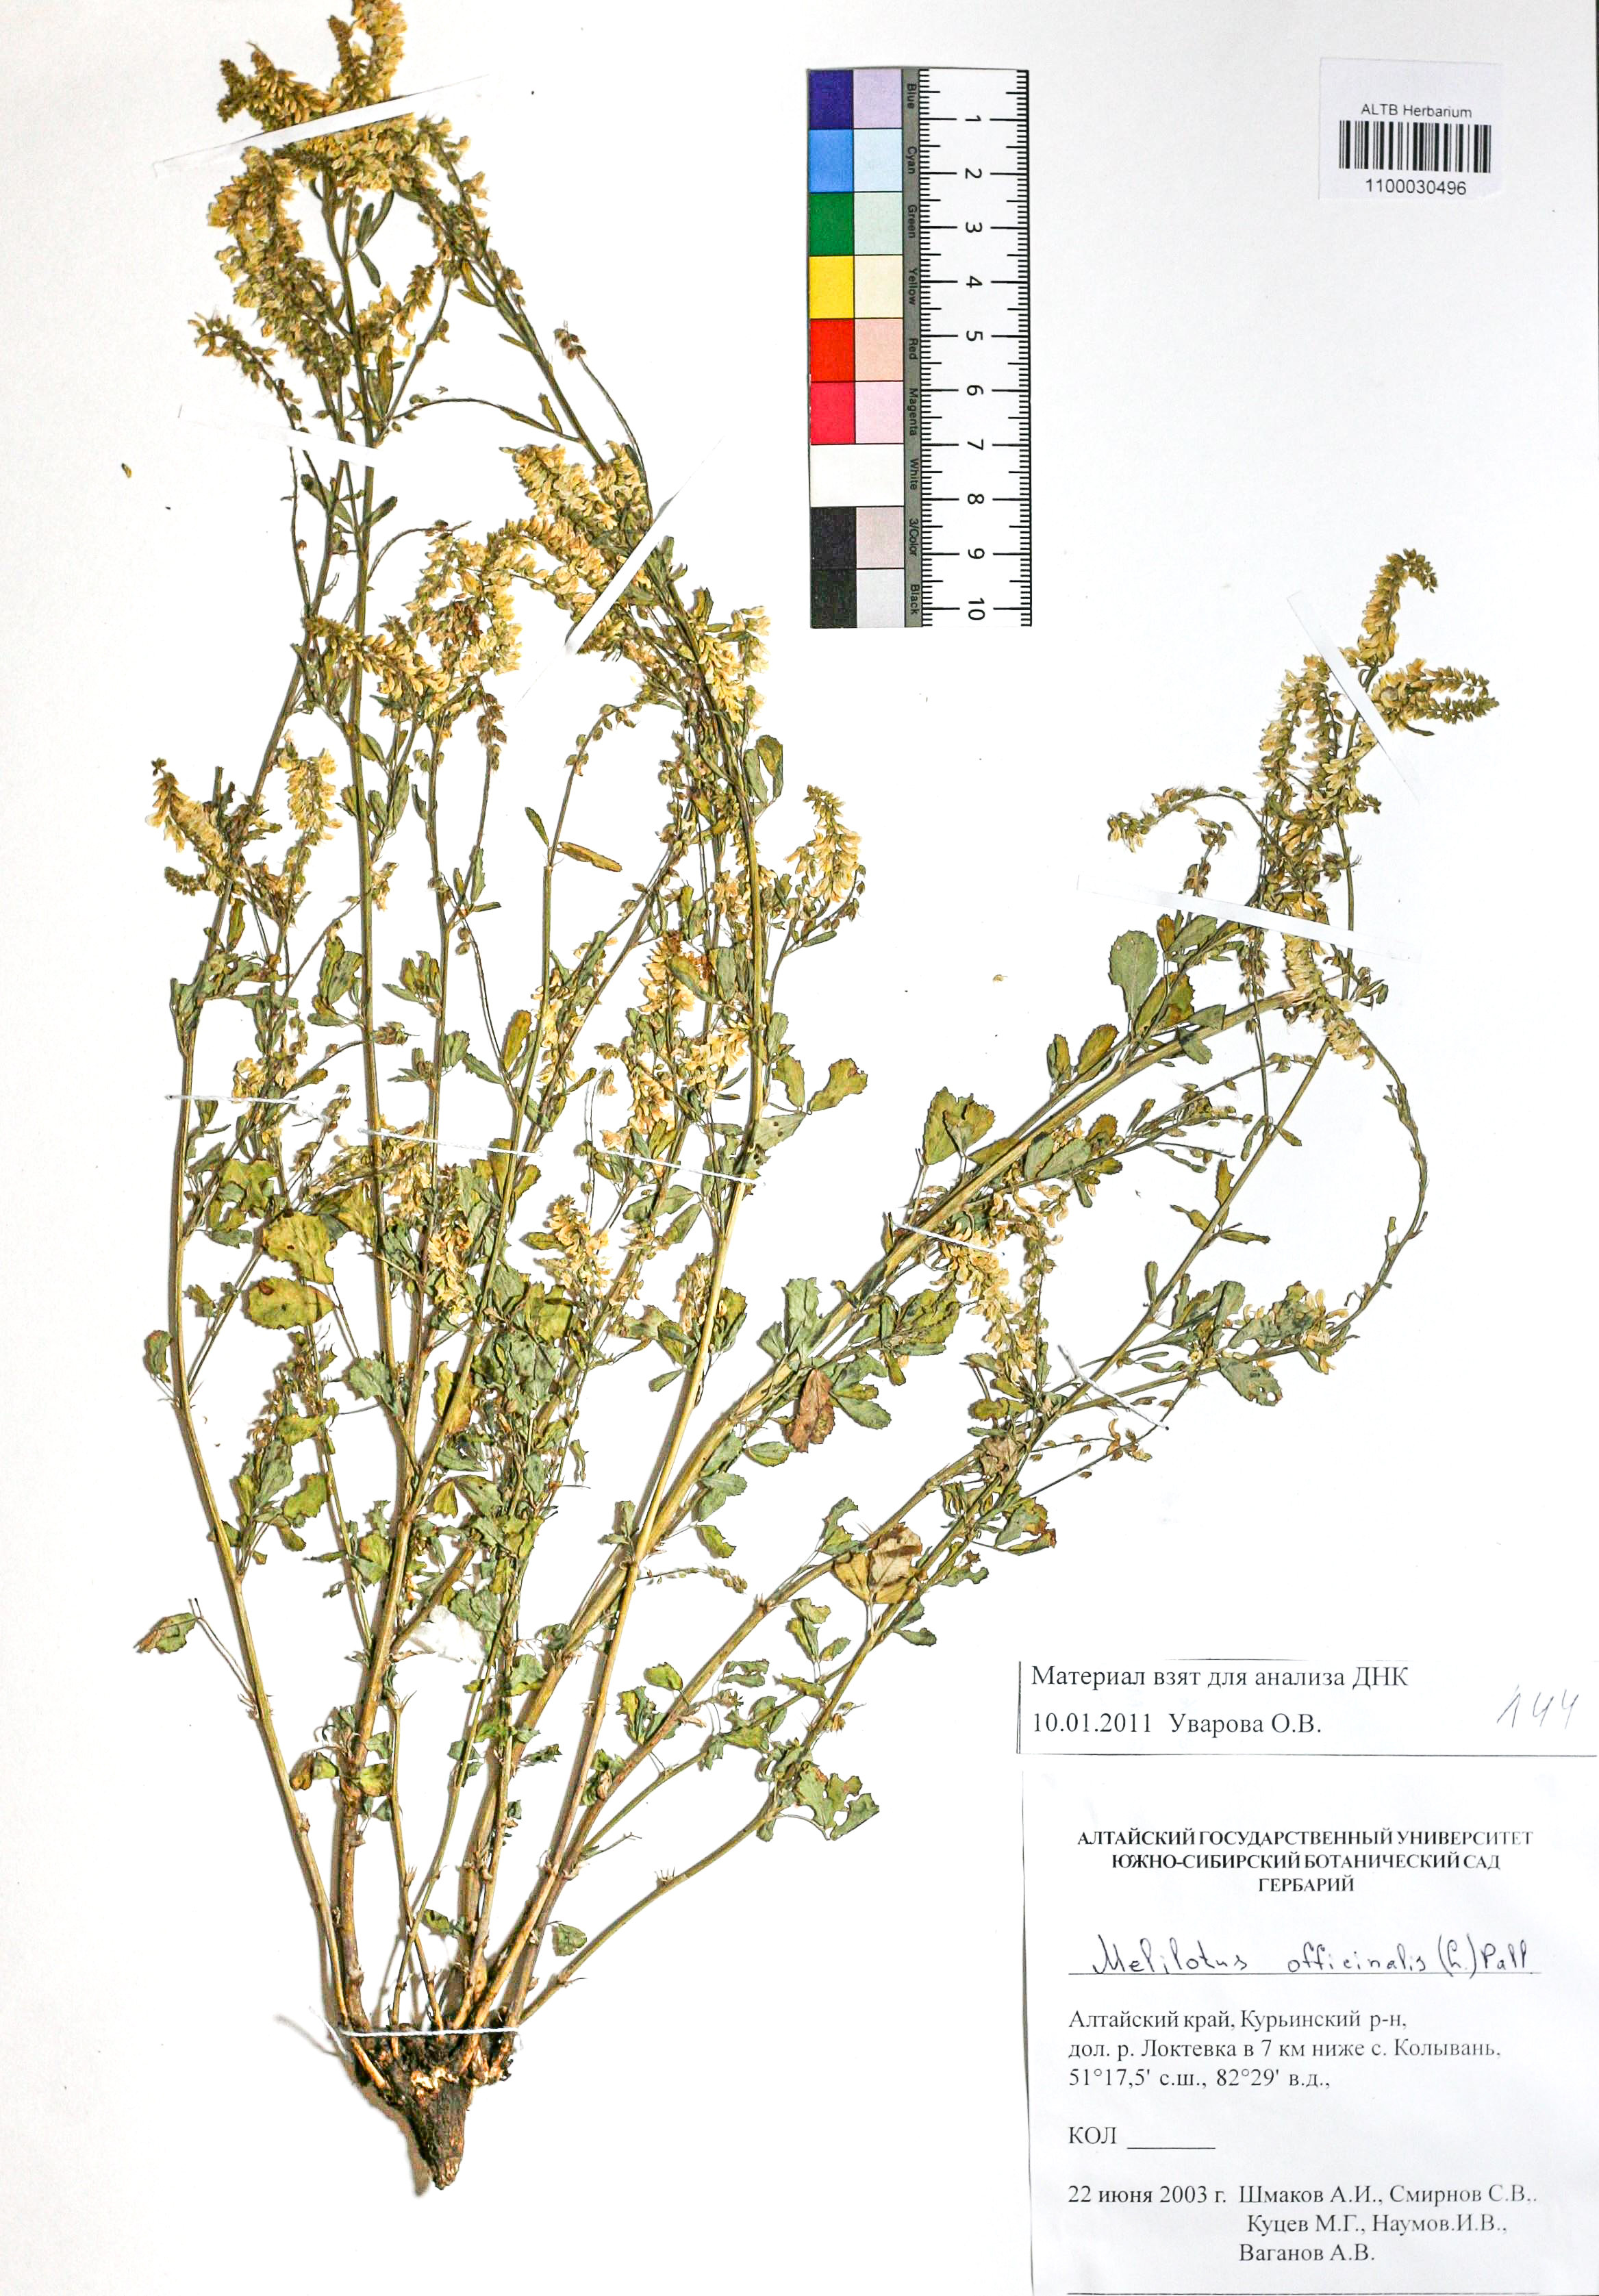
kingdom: Plantae
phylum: Tracheophyta
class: Magnoliopsida
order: Fabales
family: Fabaceae
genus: Melilotus
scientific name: Melilotus officinalis
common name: Sweetclover
